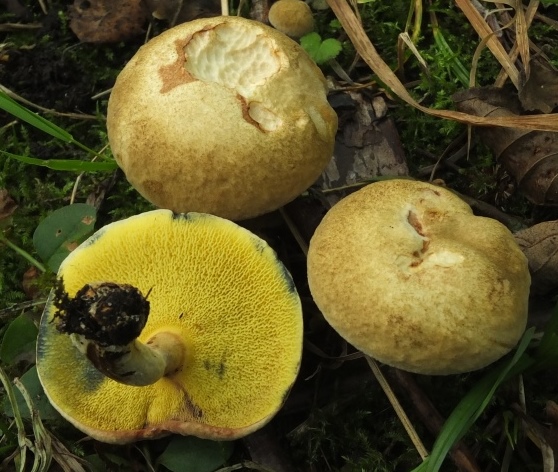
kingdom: Fungi
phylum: Basidiomycota
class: Agaricomycetes
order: Boletales
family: Paxillaceae
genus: Gyrodon
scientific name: Gyrodon lividus
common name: ellerørhat
